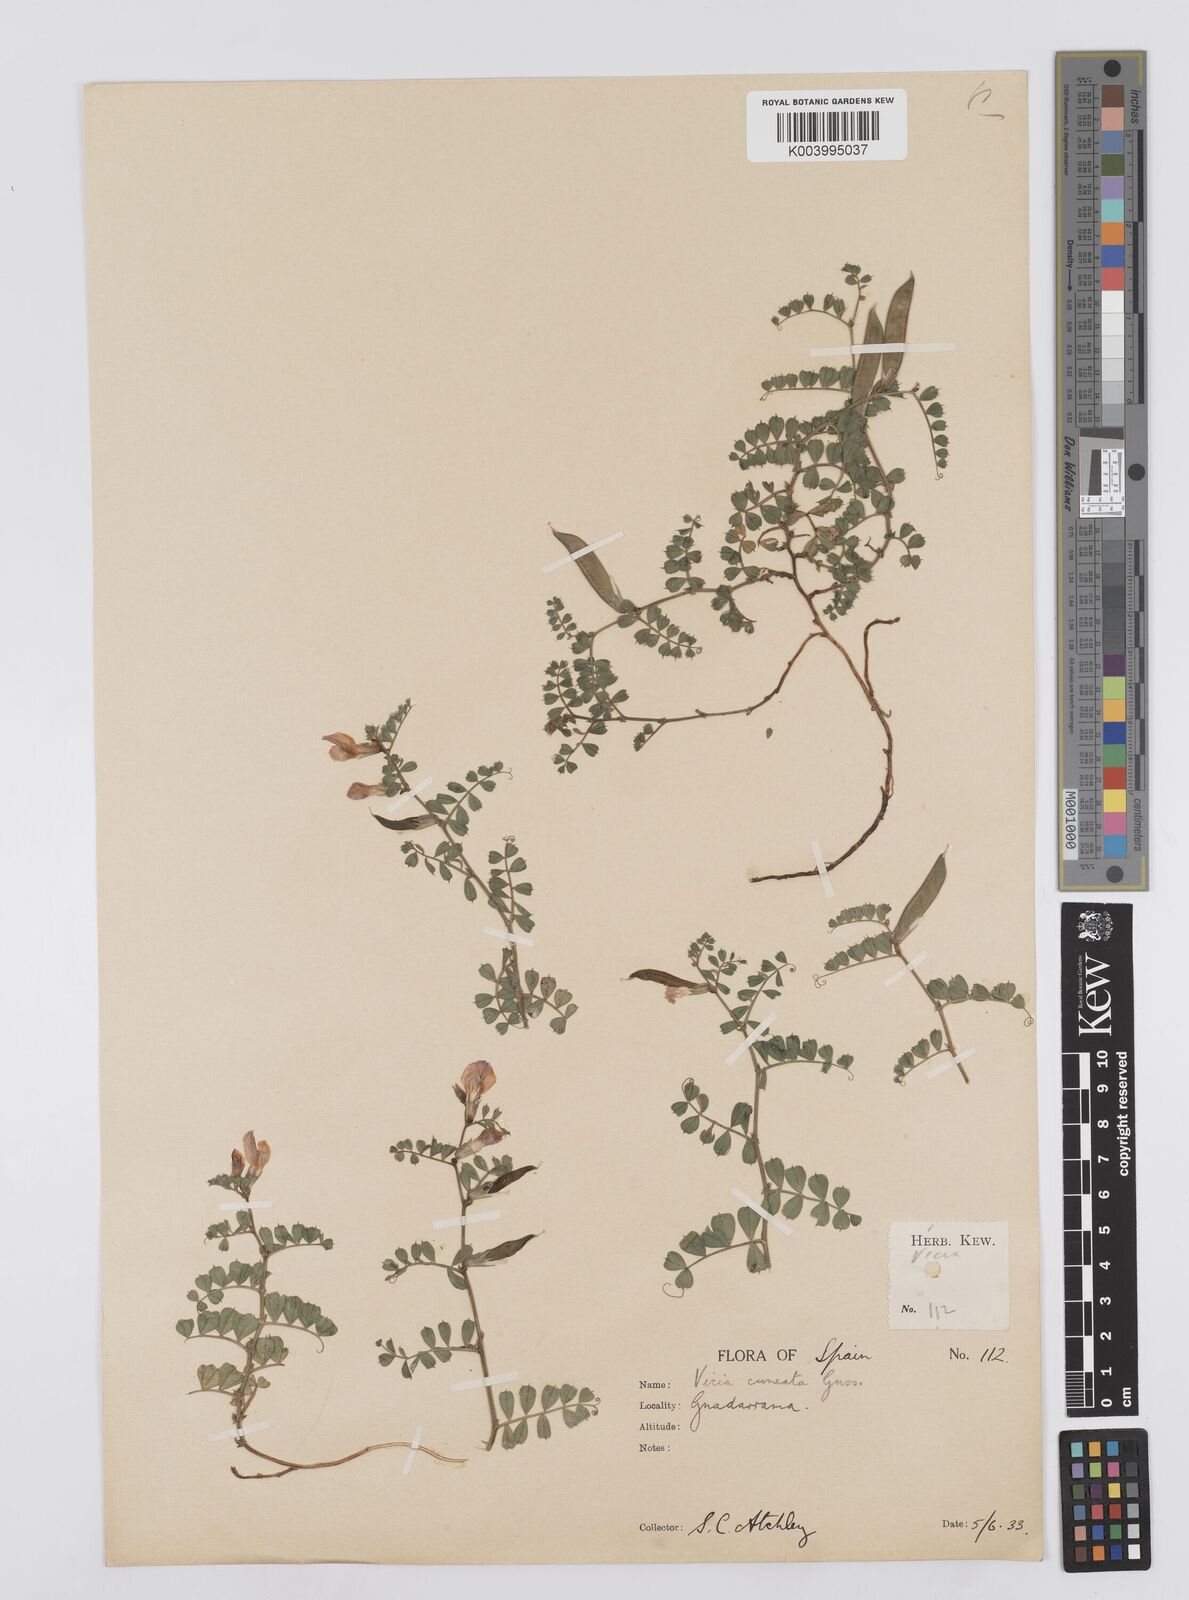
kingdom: Plantae
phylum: Tracheophyta
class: Magnoliopsida
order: Fabales
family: Fabaceae
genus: Vicia
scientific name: Vicia pyrenaica
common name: Pyrenean vetch
